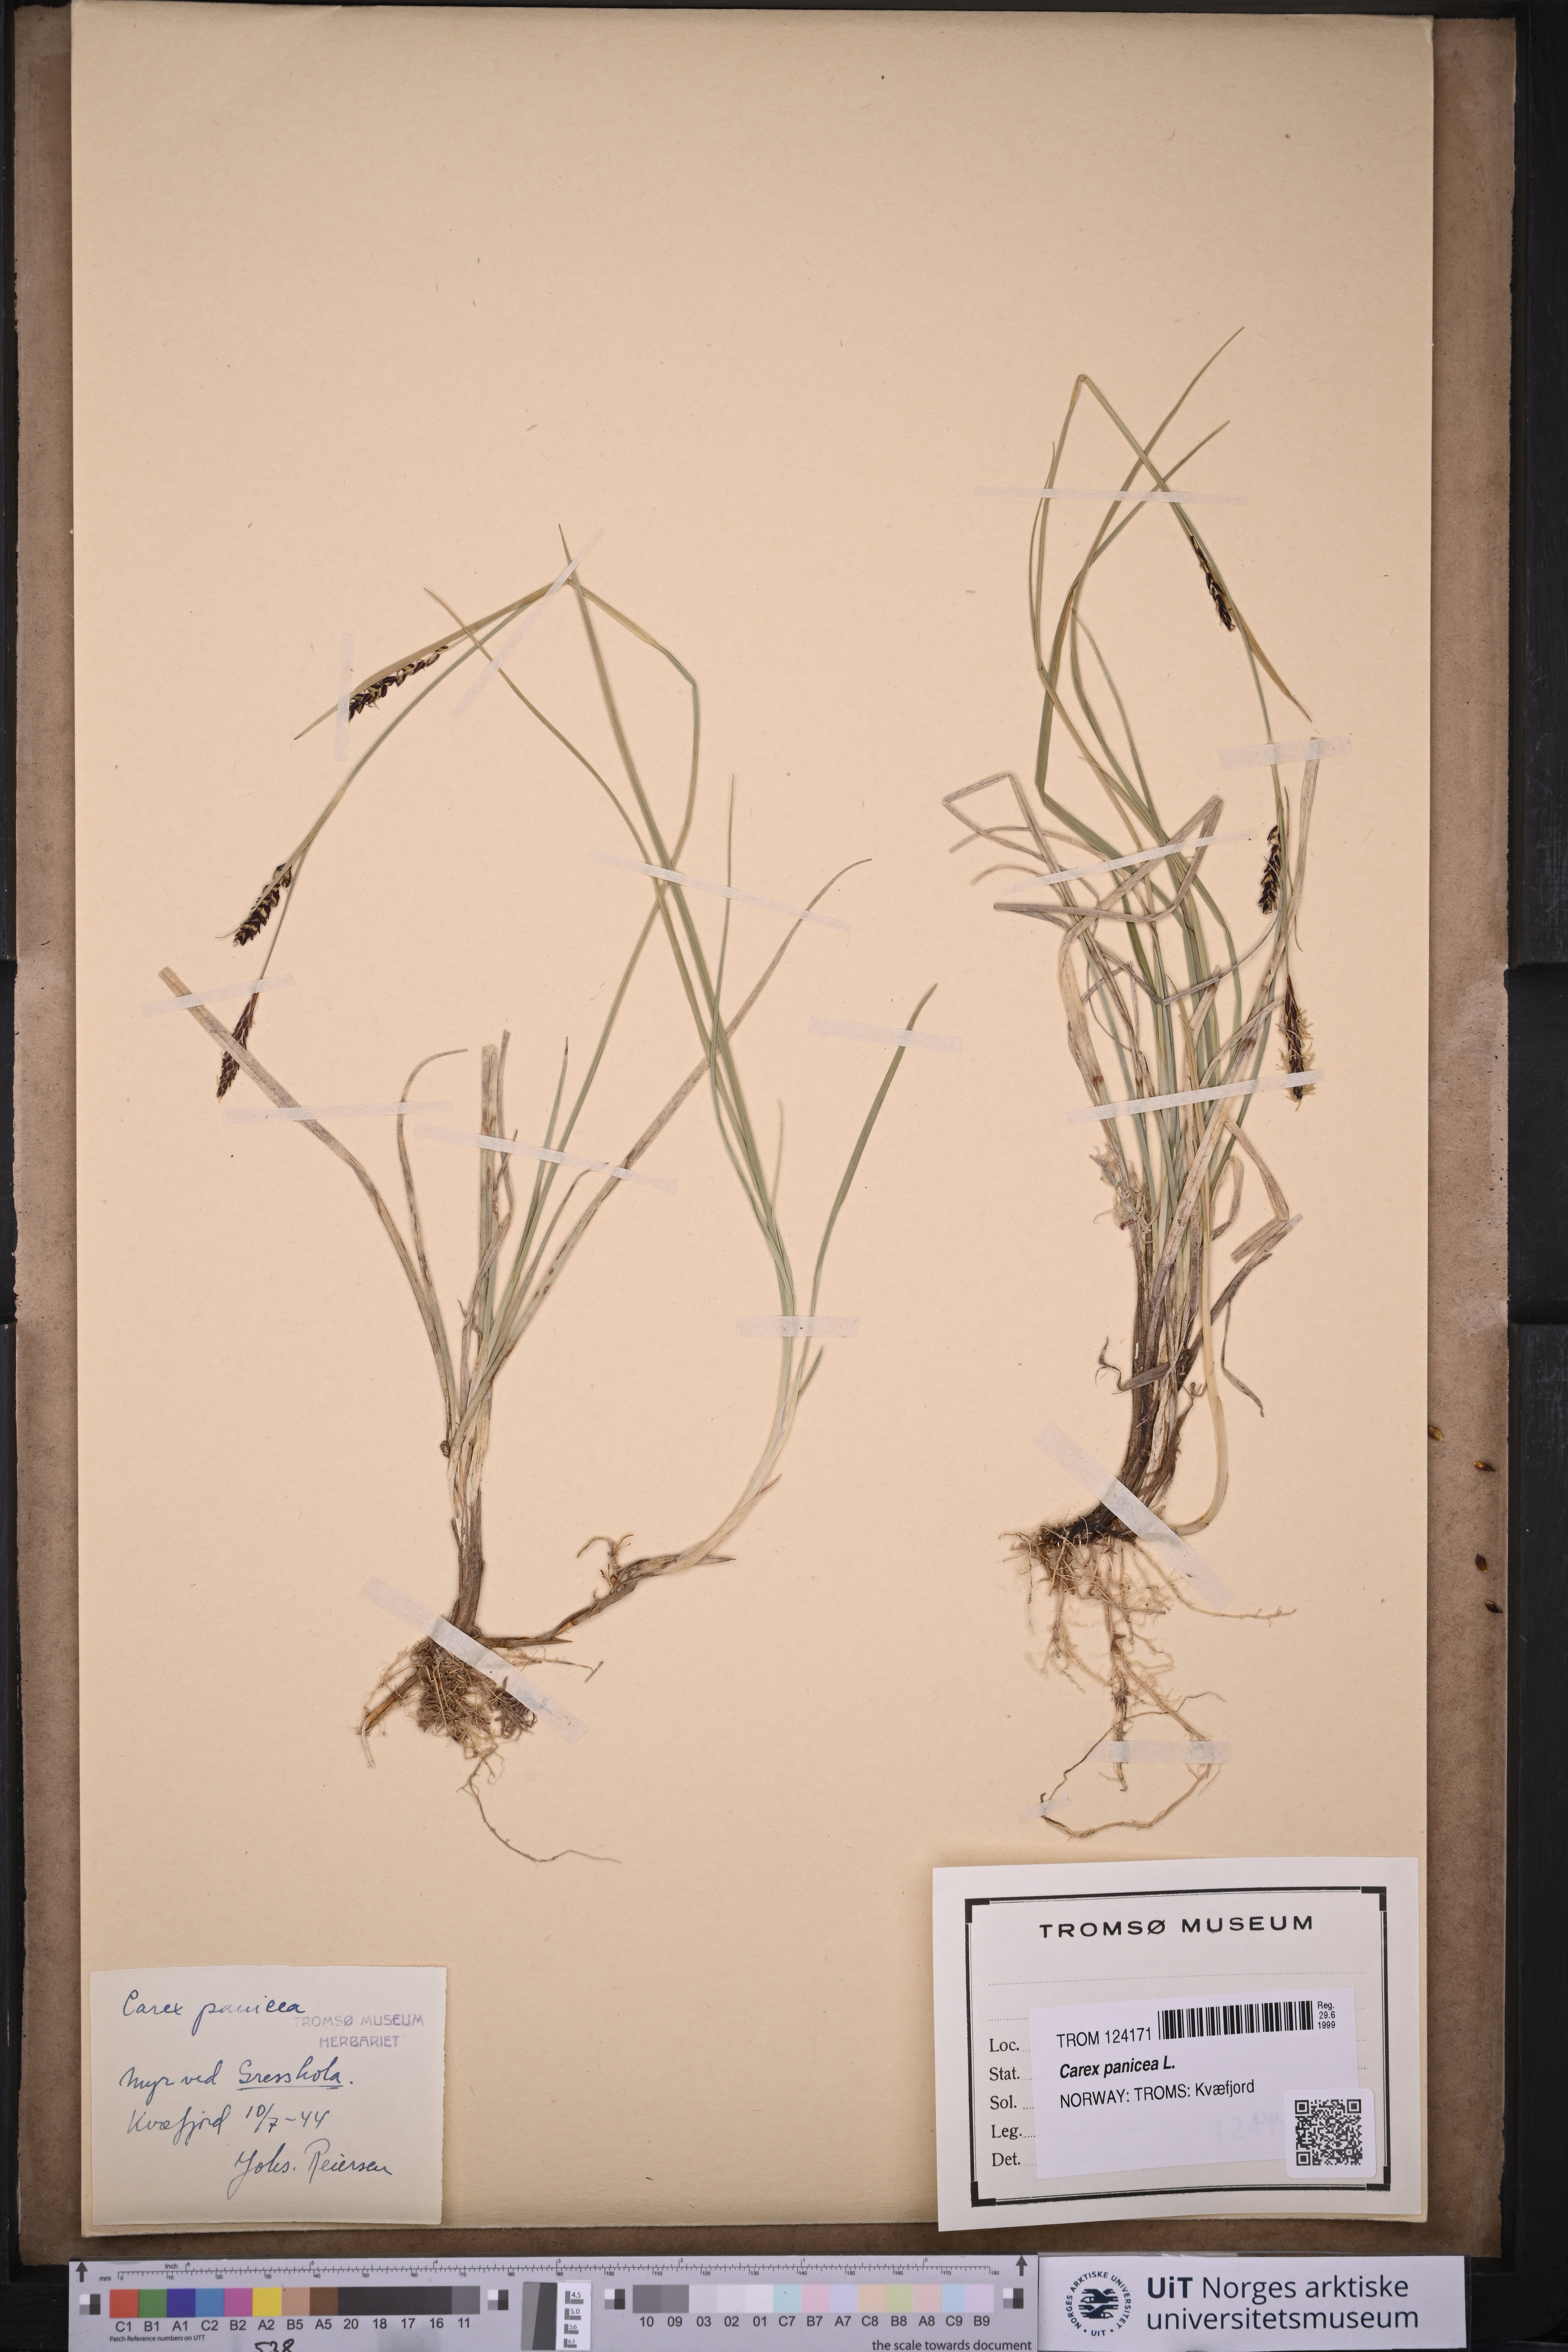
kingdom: Plantae
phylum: Tracheophyta
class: Liliopsida
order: Poales
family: Cyperaceae
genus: Carex
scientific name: Carex panicea
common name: Carnation sedge
